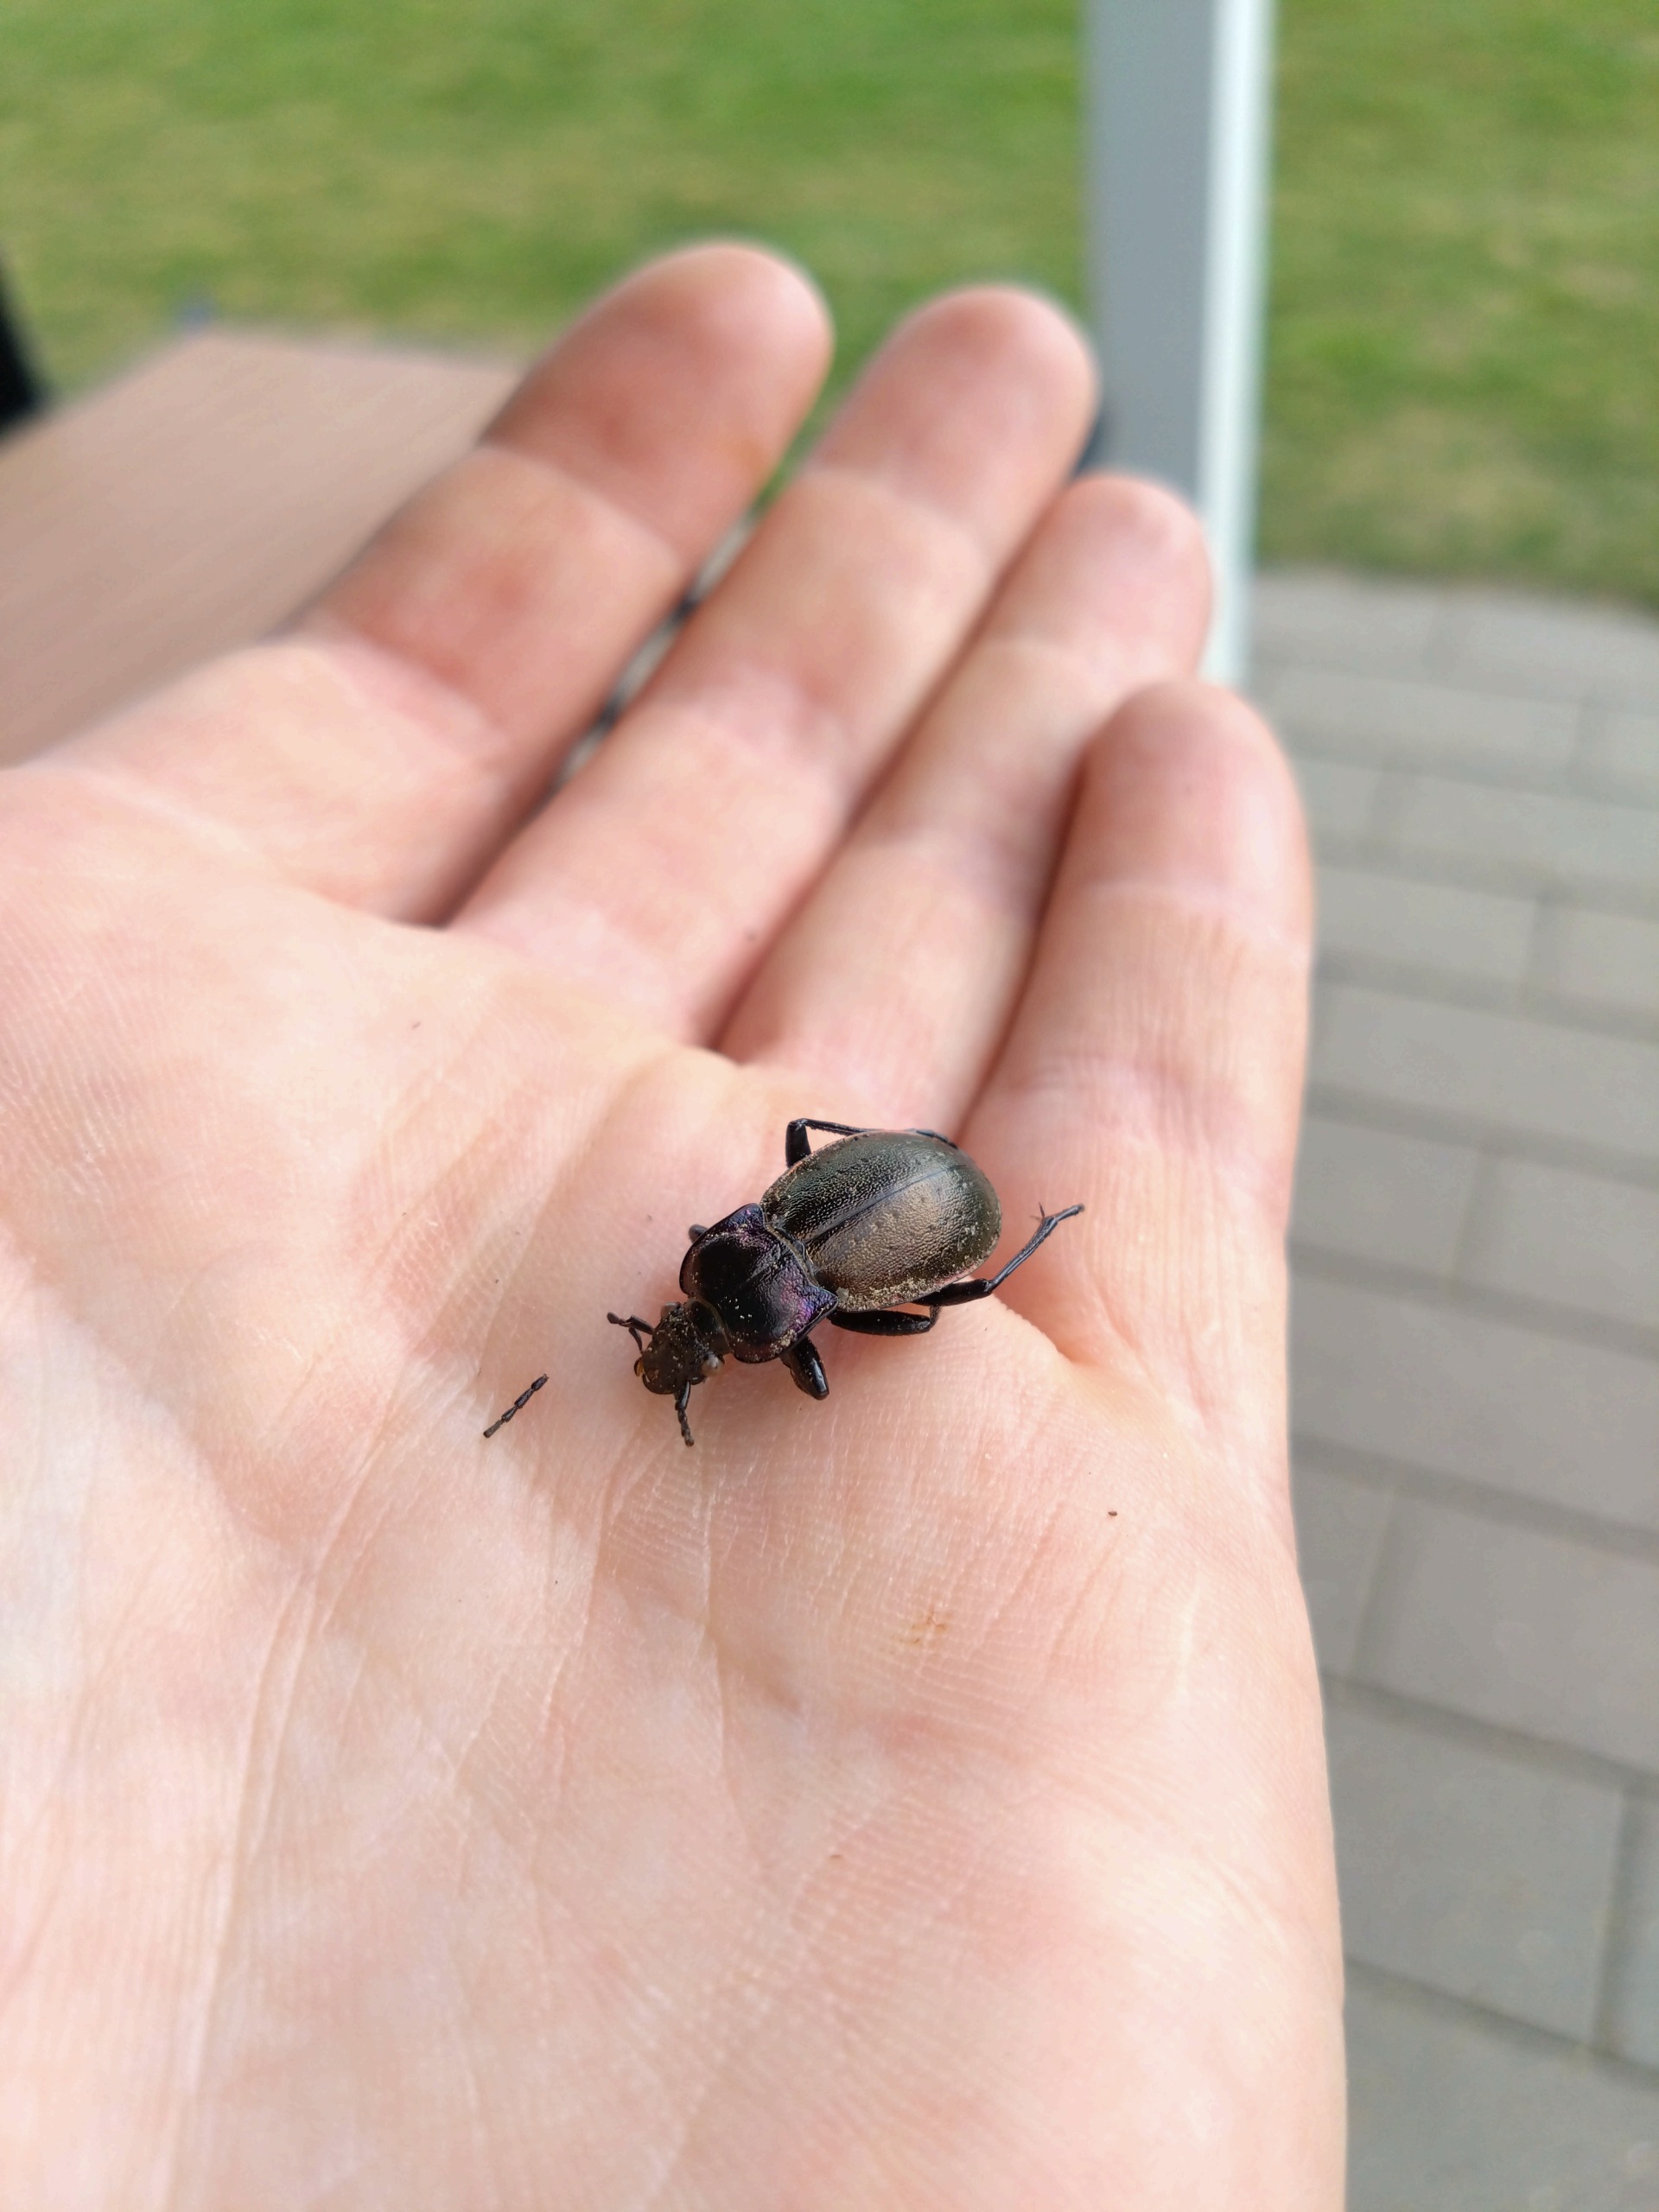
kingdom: Animalia
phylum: Arthropoda
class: Insecta
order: Coleoptera
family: Carabidae
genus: Carabus
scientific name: Carabus nemoralis
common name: Kratløber
